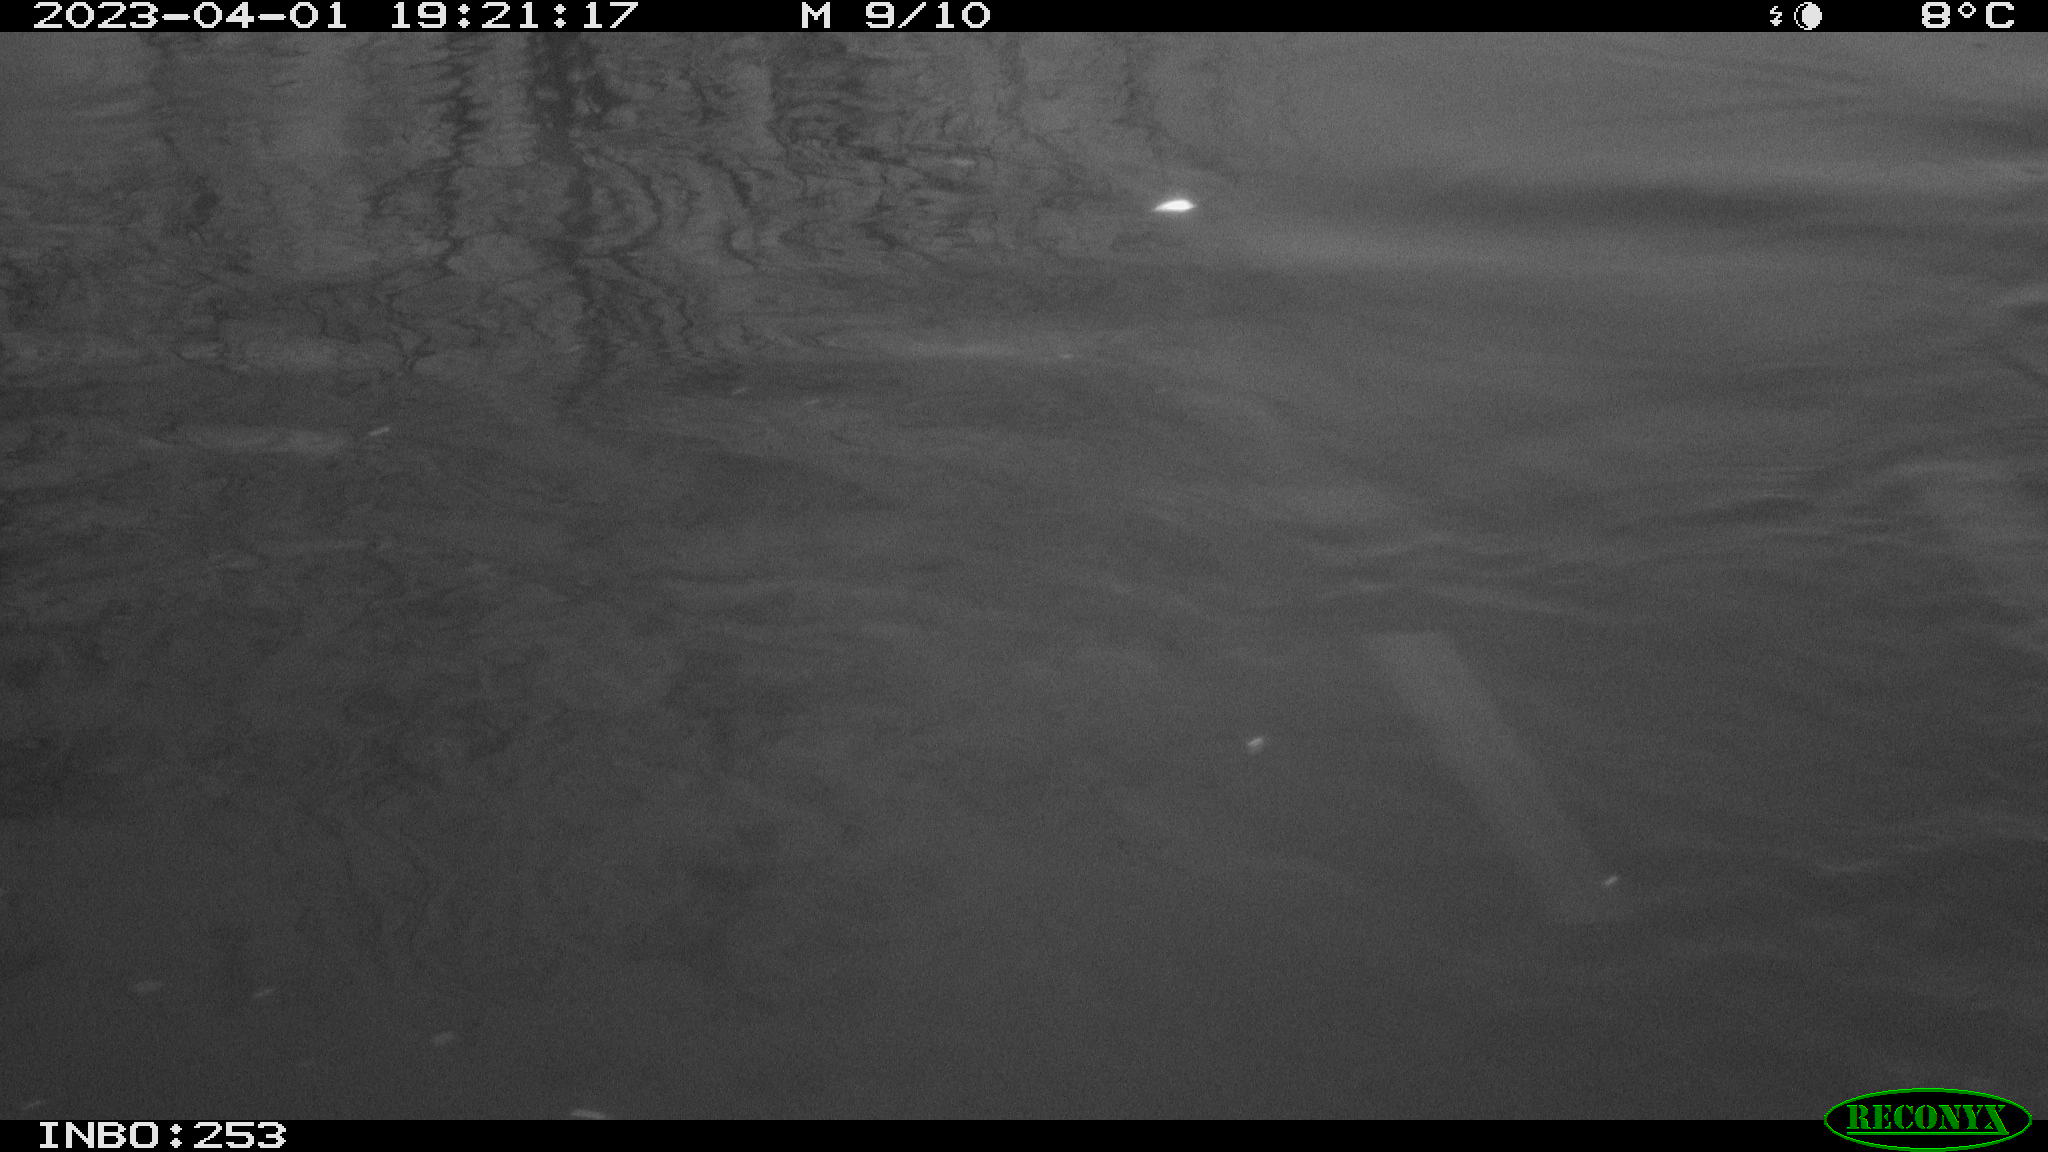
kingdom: Animalia
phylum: Chordata
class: Aves
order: Anseriformes
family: Anatidae
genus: Anas
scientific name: Anas
